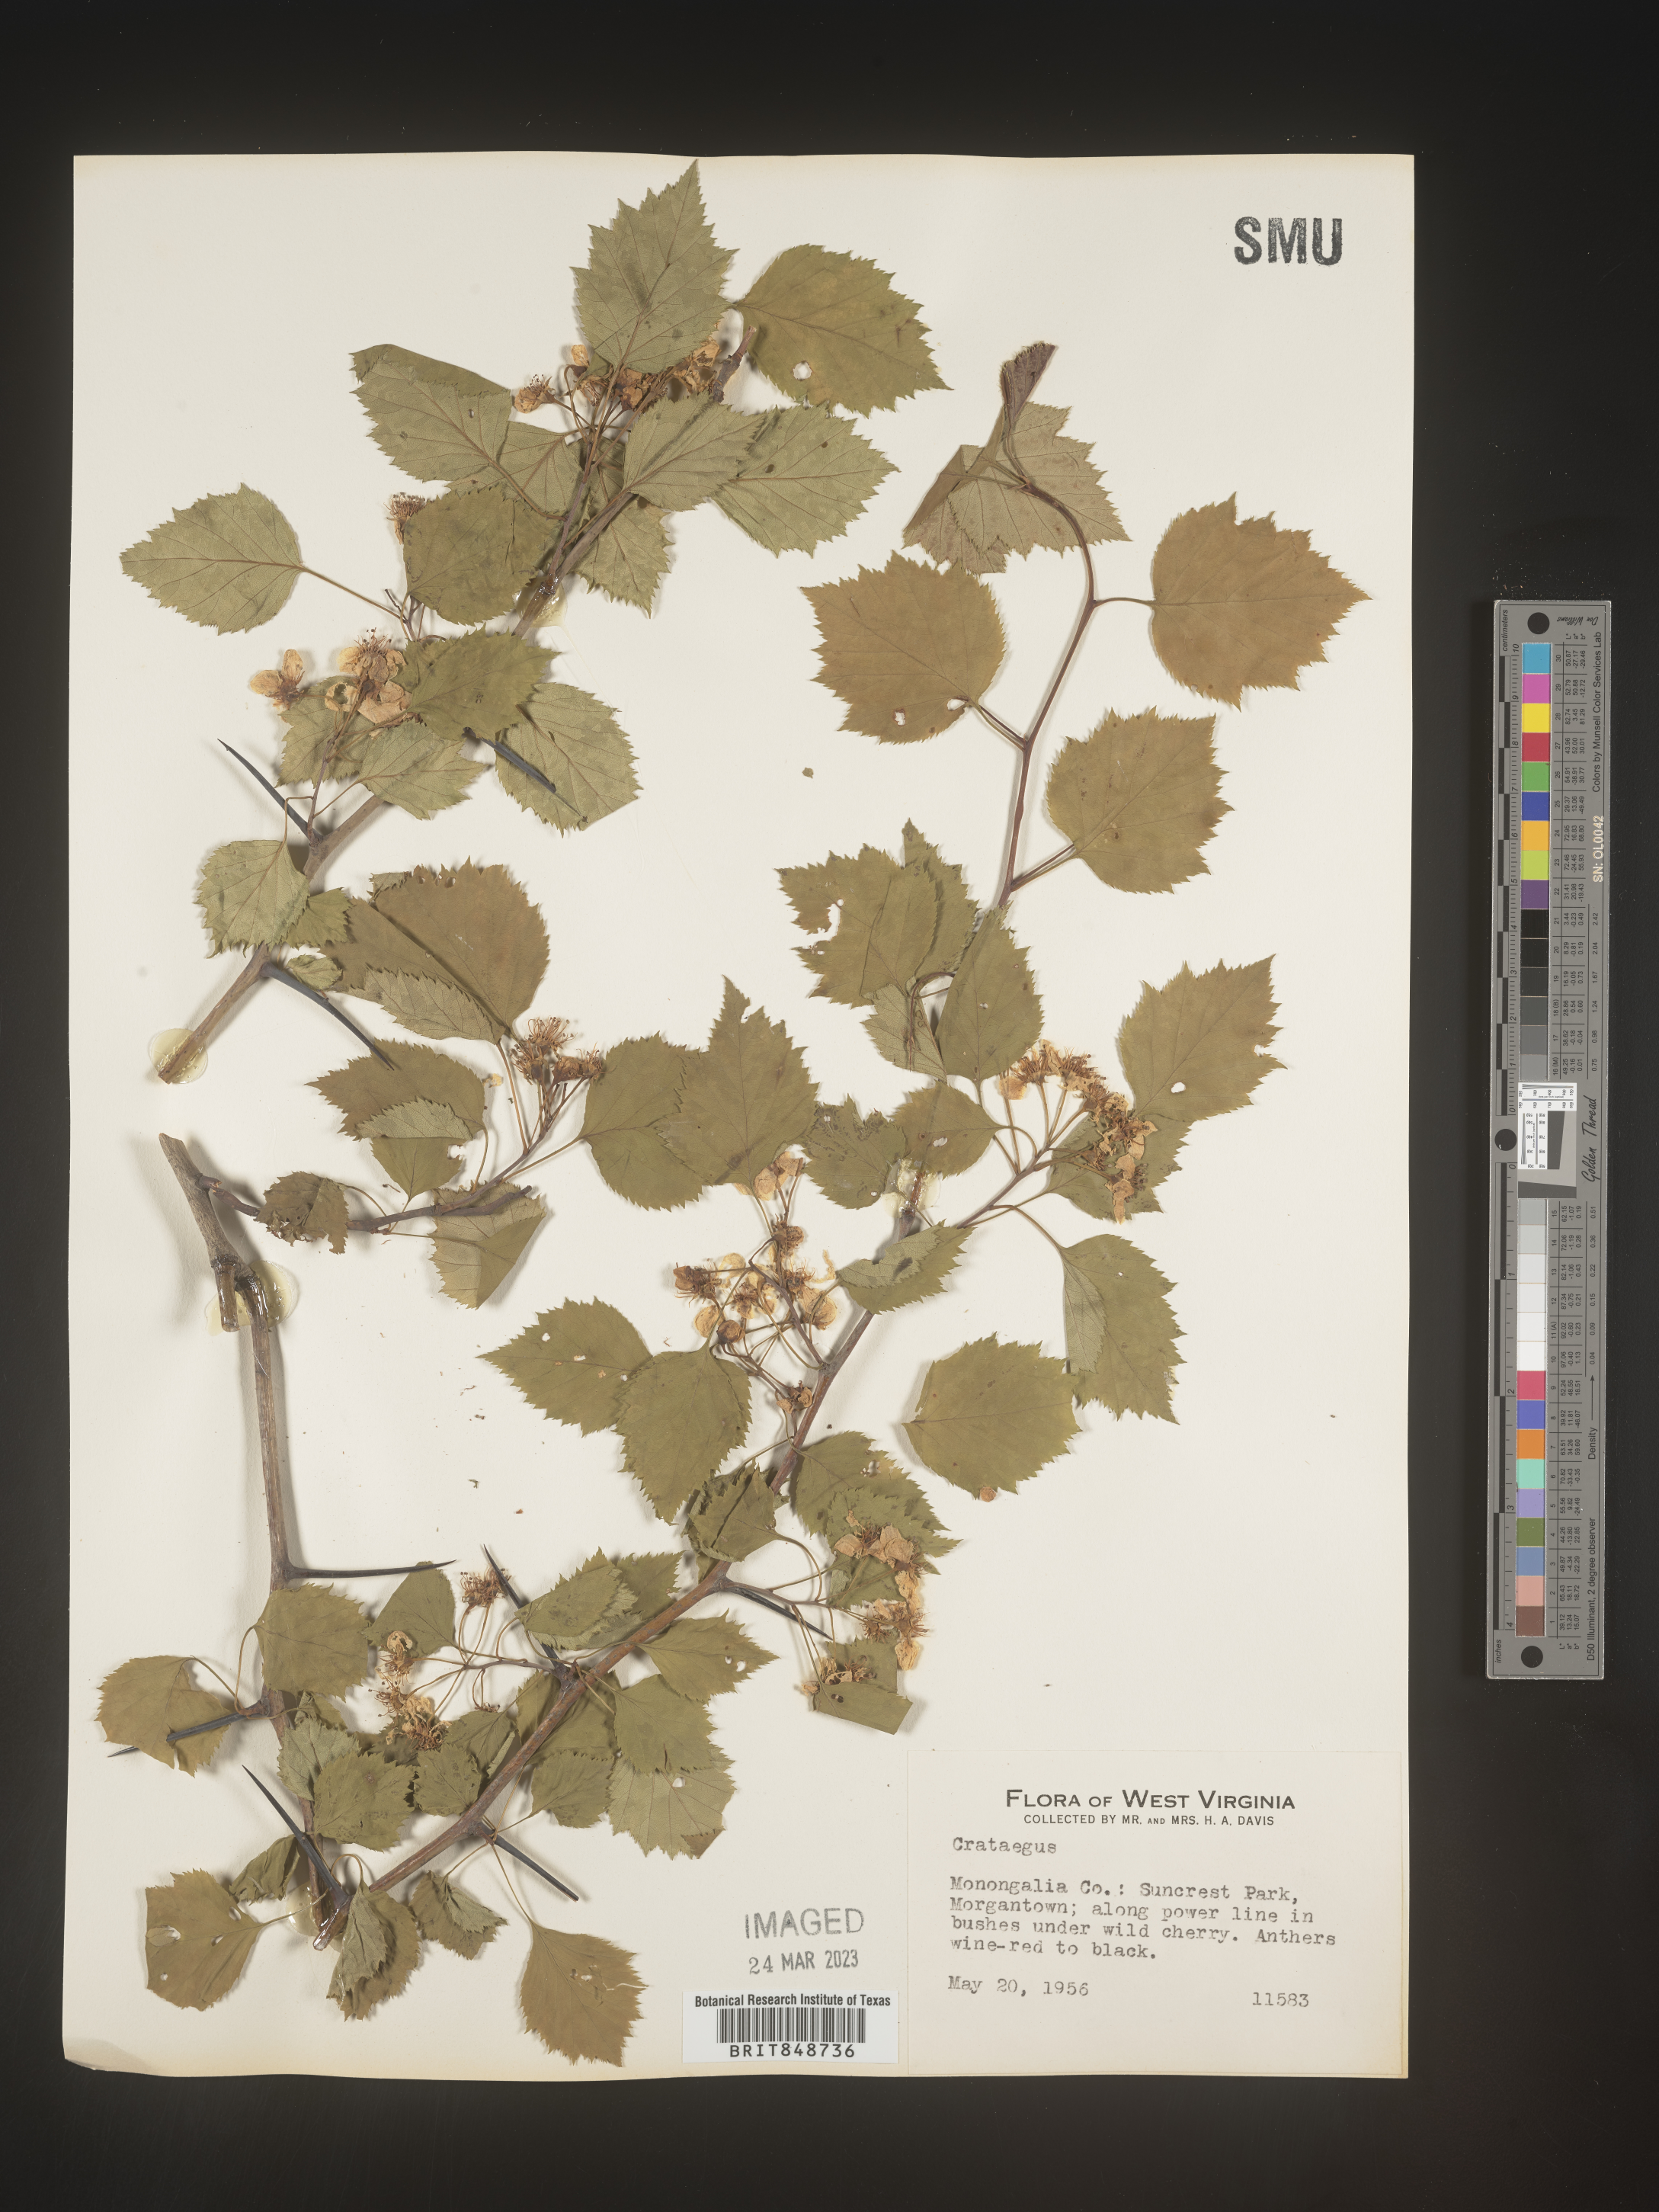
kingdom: Plantae
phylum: Tracheophyta
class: Magnoliopsida
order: Rosales
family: Rosaceae
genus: Crataegus
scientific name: Crataegus
